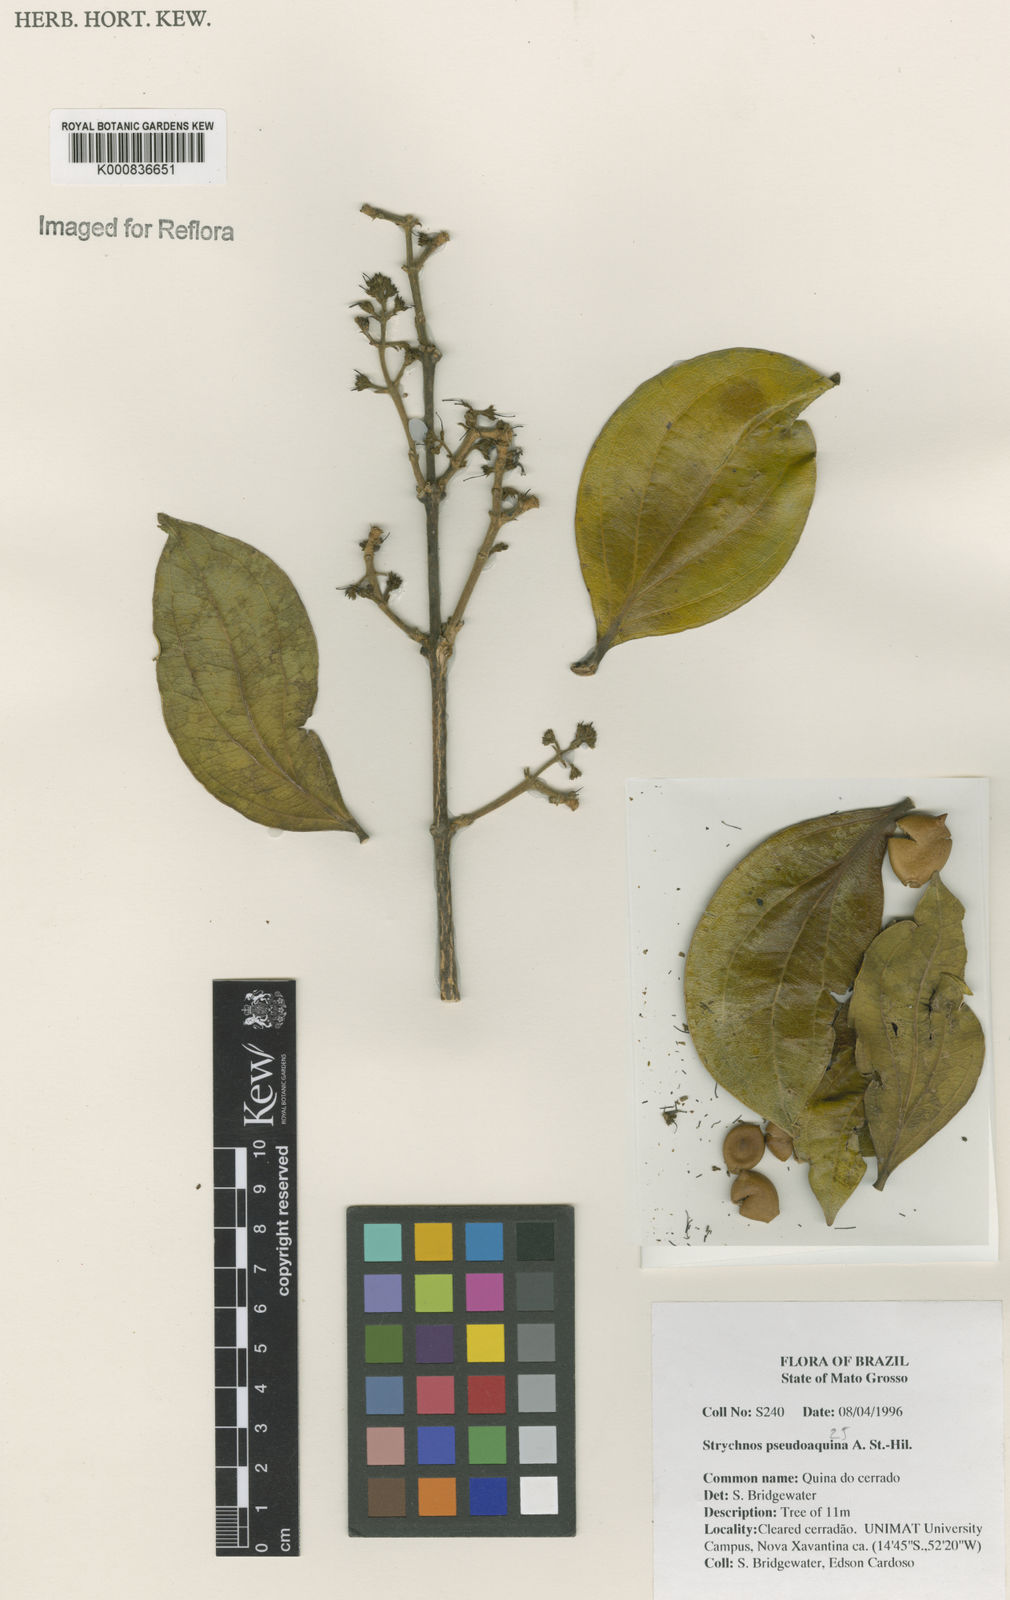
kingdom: Plantae
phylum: Tracheophyta
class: Magnoliopsida
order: Gentianales
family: Loganiaceae
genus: Strychnos
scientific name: Strychnos pseudoquina
